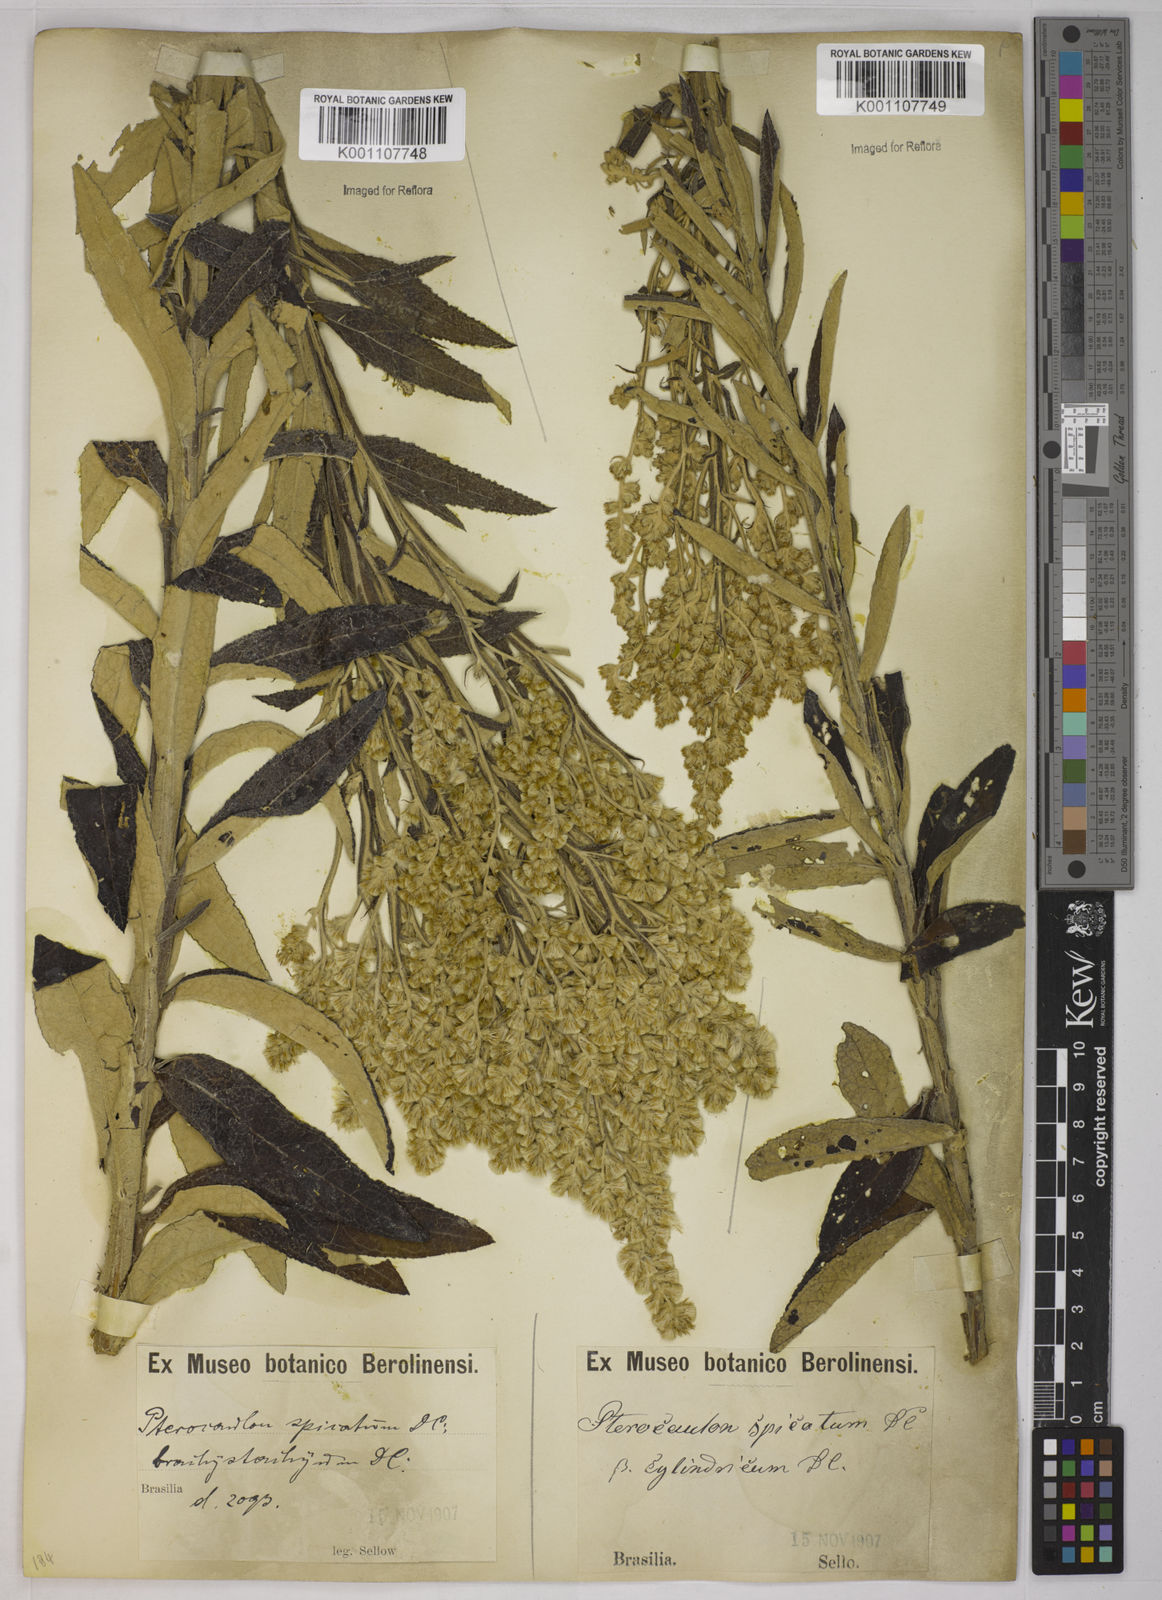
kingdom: Plantae
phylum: Tracheophyta
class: Magnoliopsida
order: Asterales
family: Asteraceae
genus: Pterocaulon
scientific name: Pterocaulon alopecuroides
